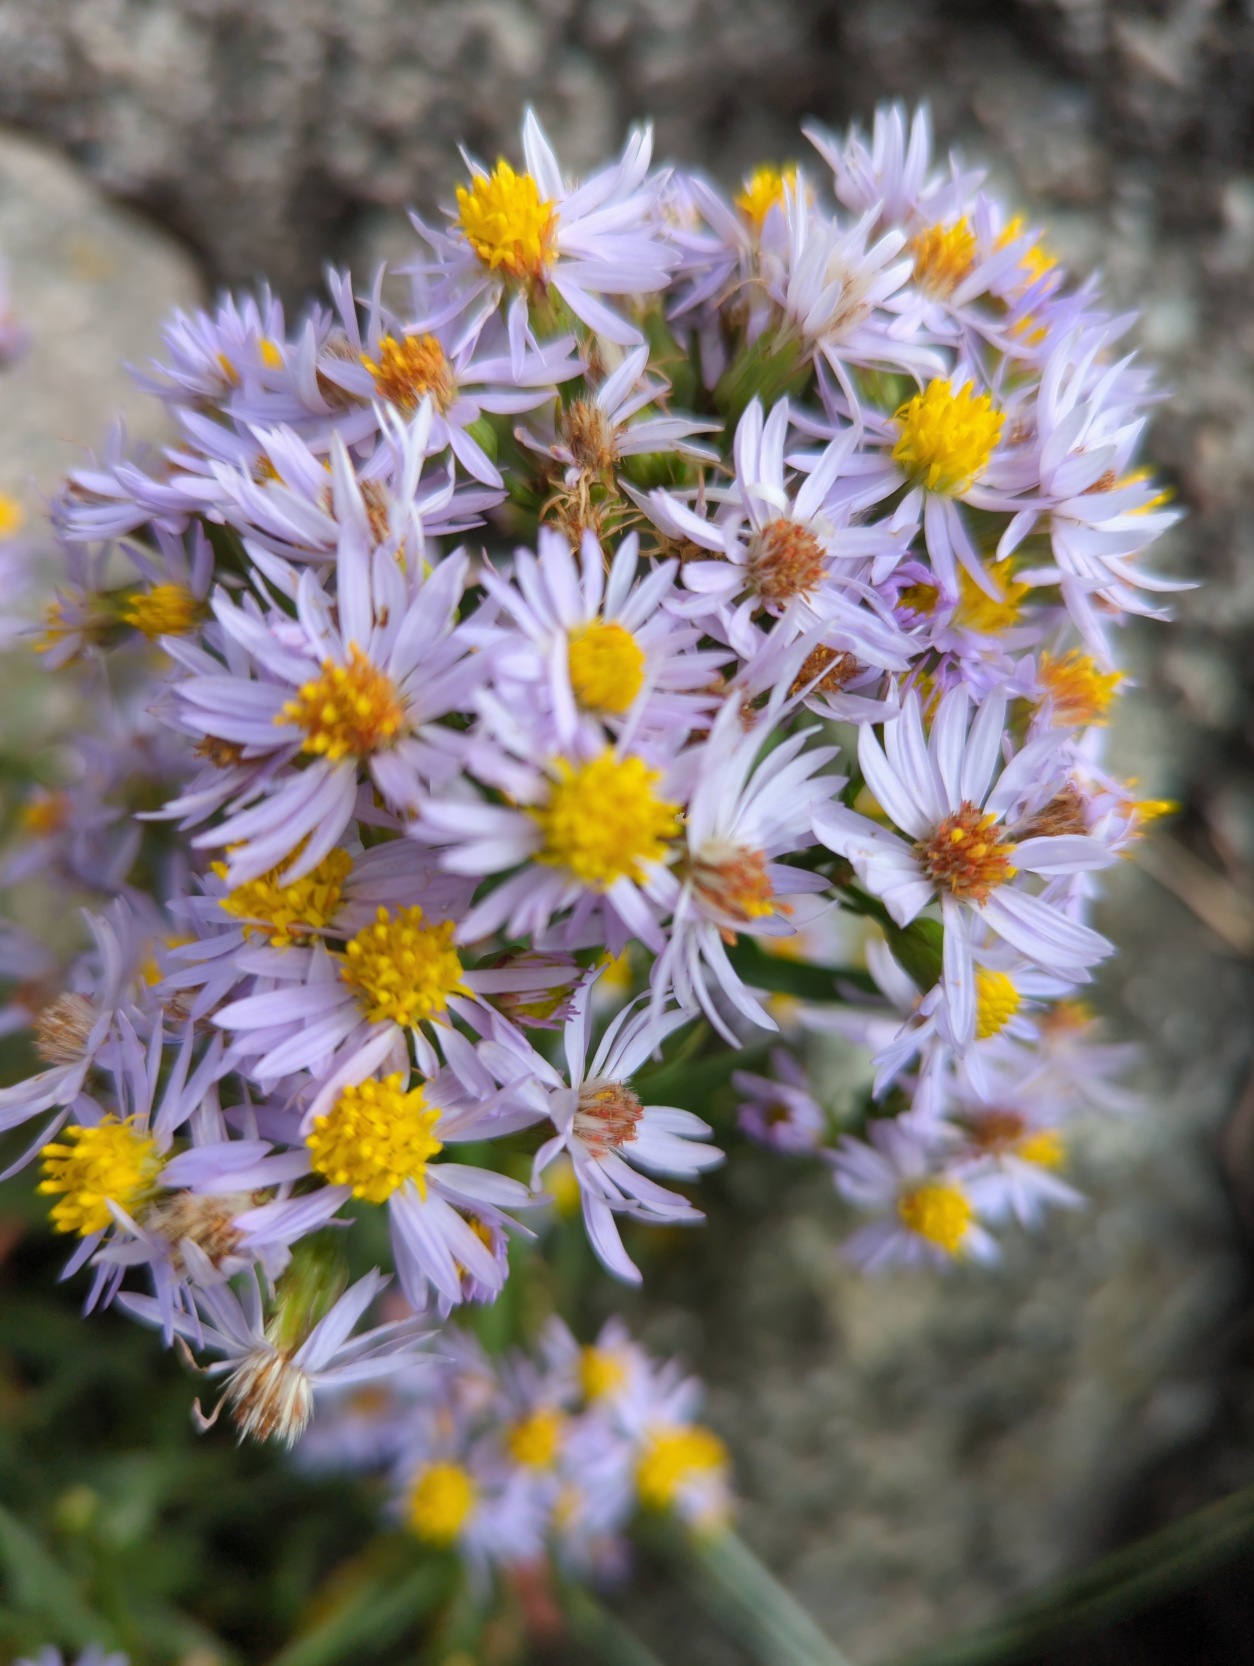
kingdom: Plantae
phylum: Tracheophyta
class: Magnoliopsida
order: Asterales
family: Asteraceae
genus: Tripolium
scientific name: Tripolium pannonicum
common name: Strandasters
